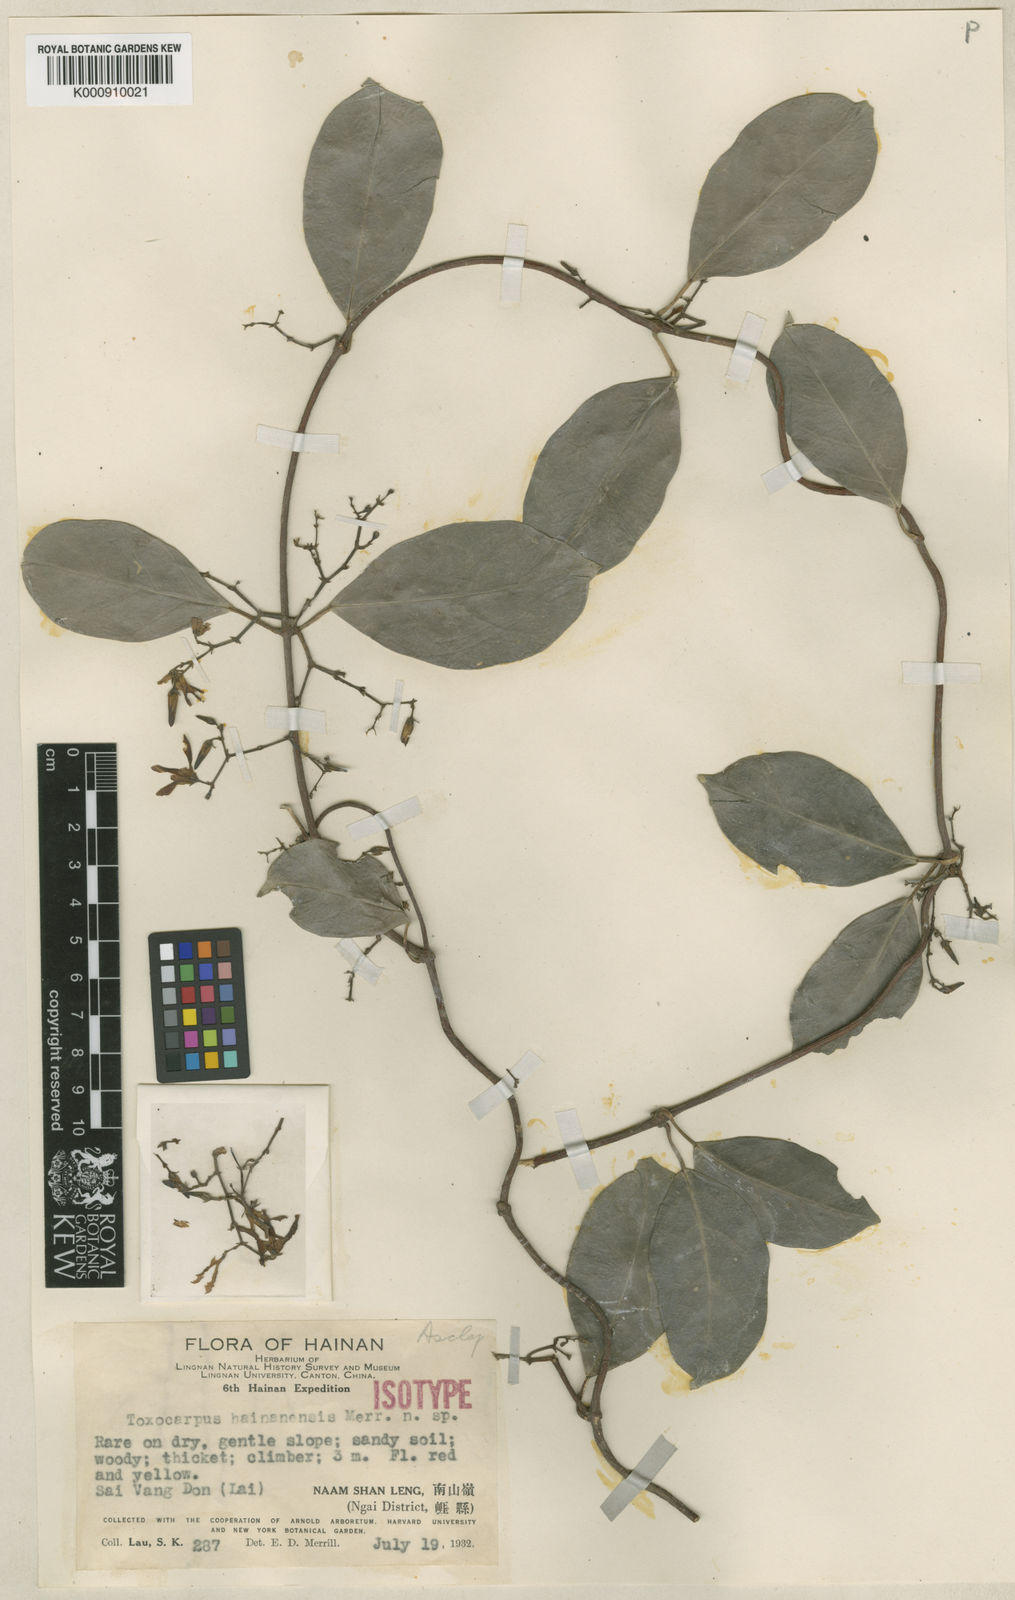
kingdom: Plantae
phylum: Tracheophyta
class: Magnoliopsida
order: Gentianales
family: Apocynaceae
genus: Toxocarpus
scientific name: Toxocarpus hainanensis
